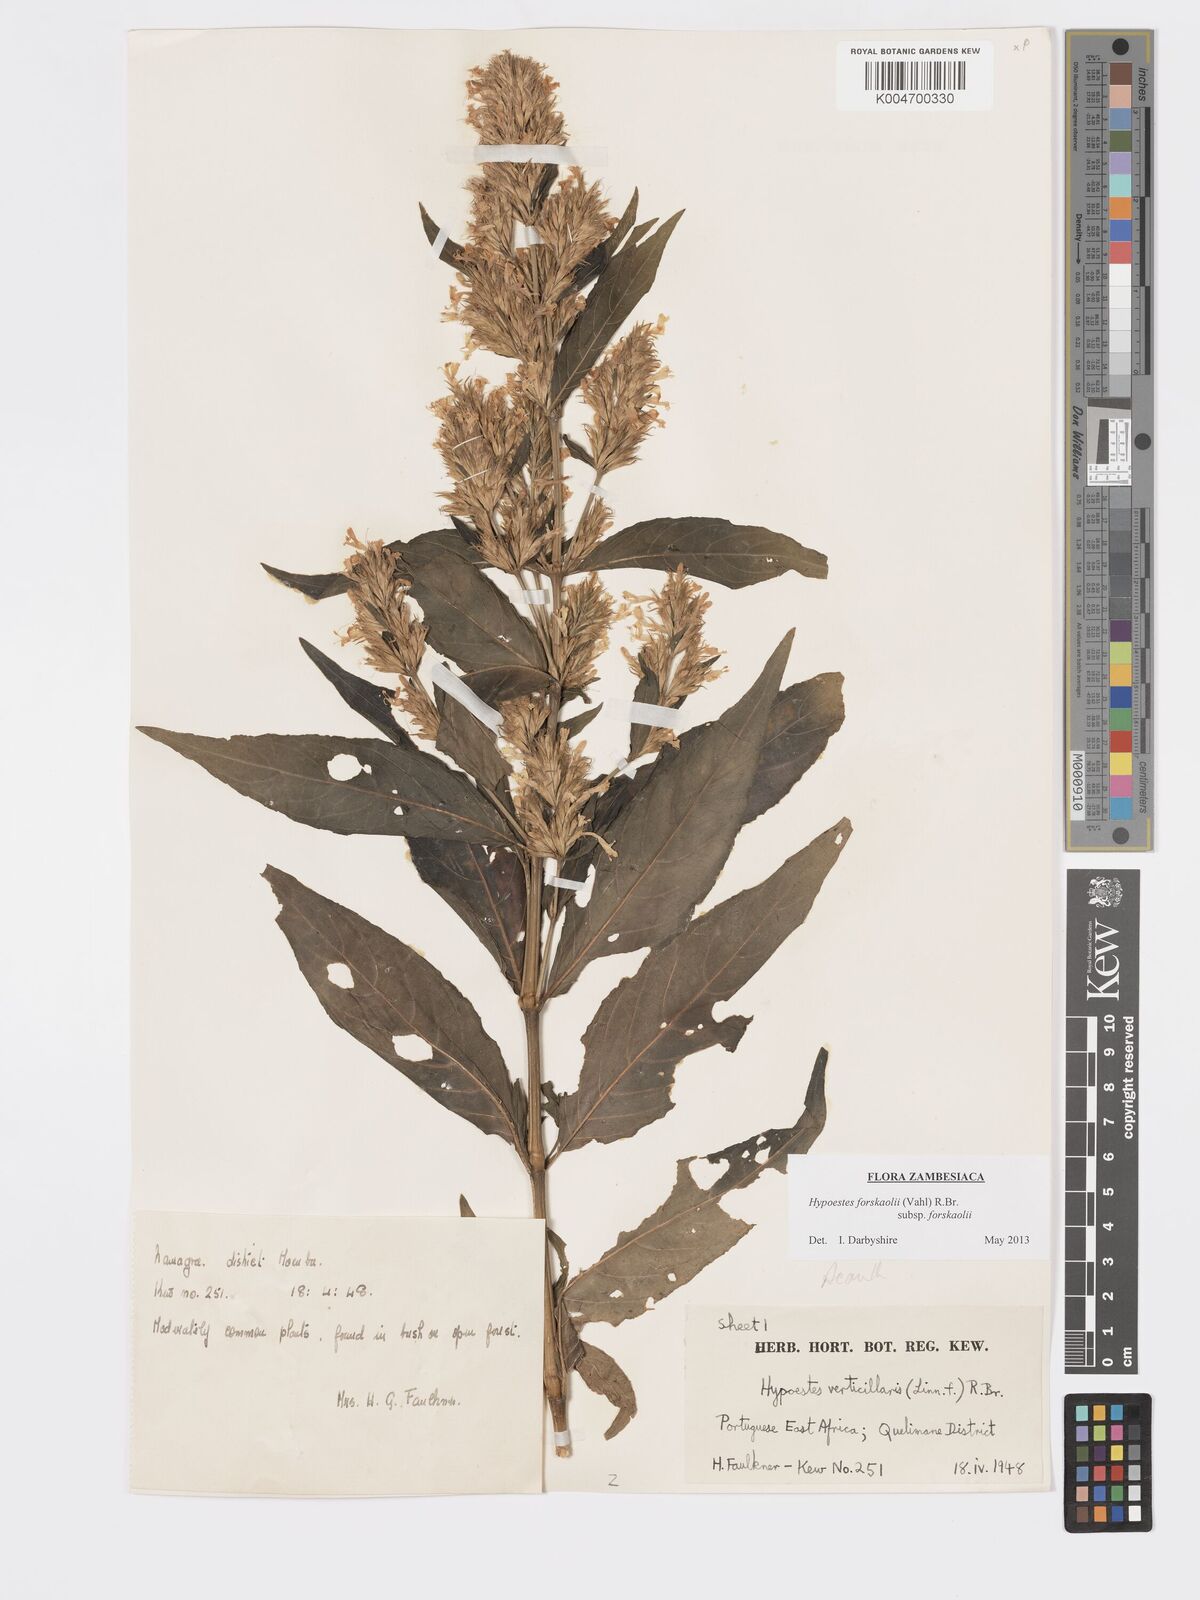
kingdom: Plantae
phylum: Tracheophyta
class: Magnoliopsida
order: Lamiales
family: Acanthaceae
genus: Hypoestes
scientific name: Hypoestes forskaolii
